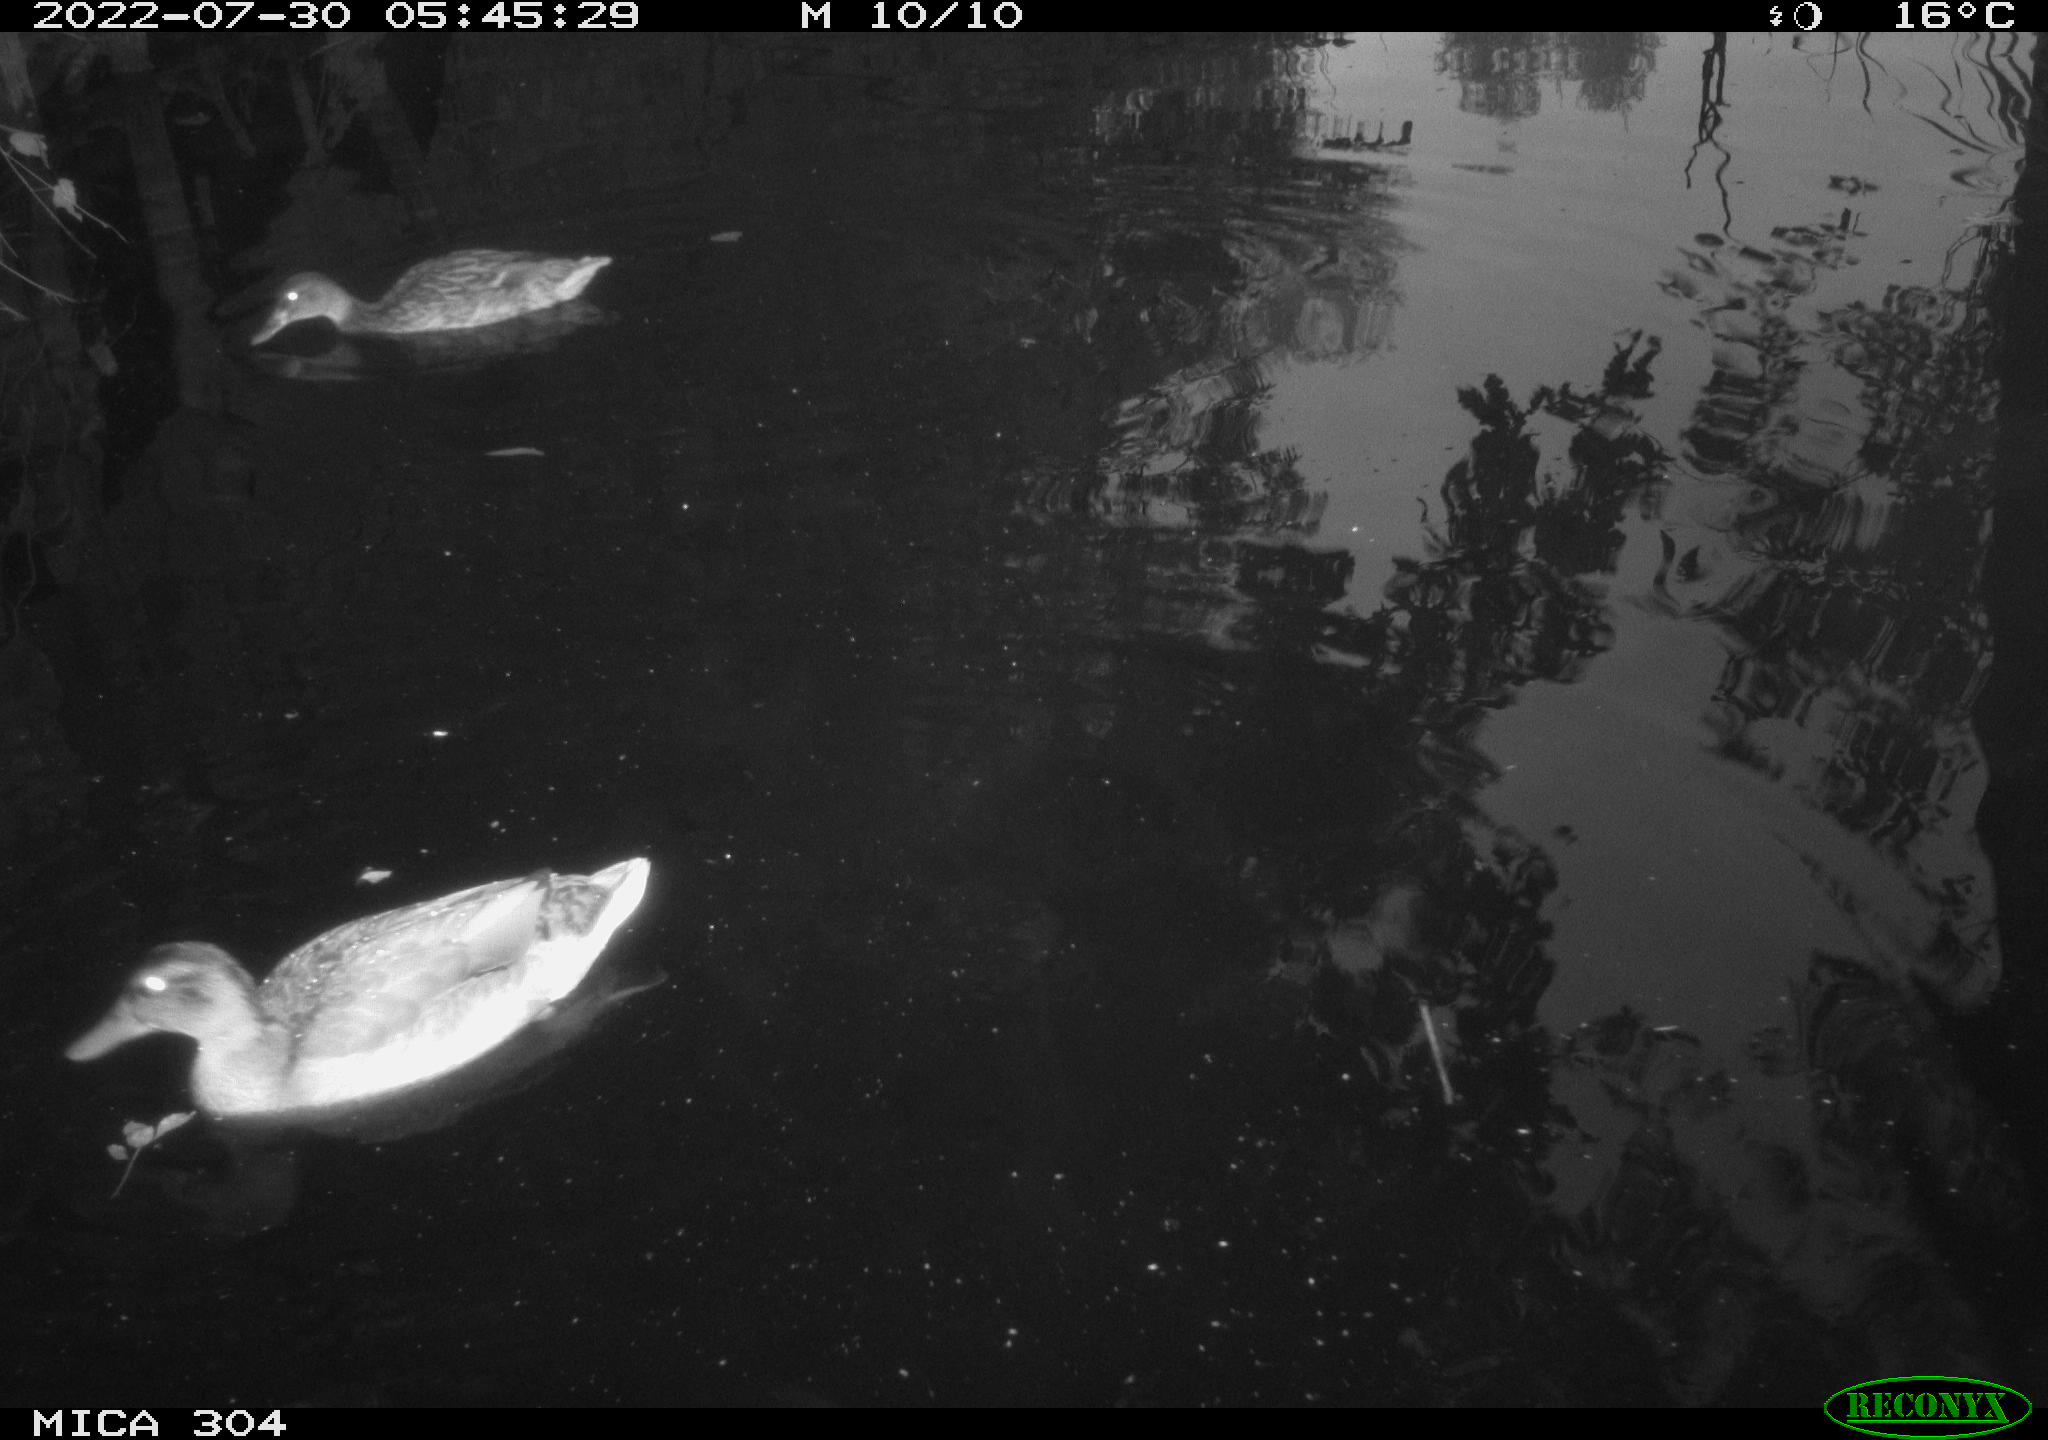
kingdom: Animalia
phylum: Chordata
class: Aves
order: Anseriformes
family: Anatidae
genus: Mareca
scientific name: Mareca strepera
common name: Gadwall
